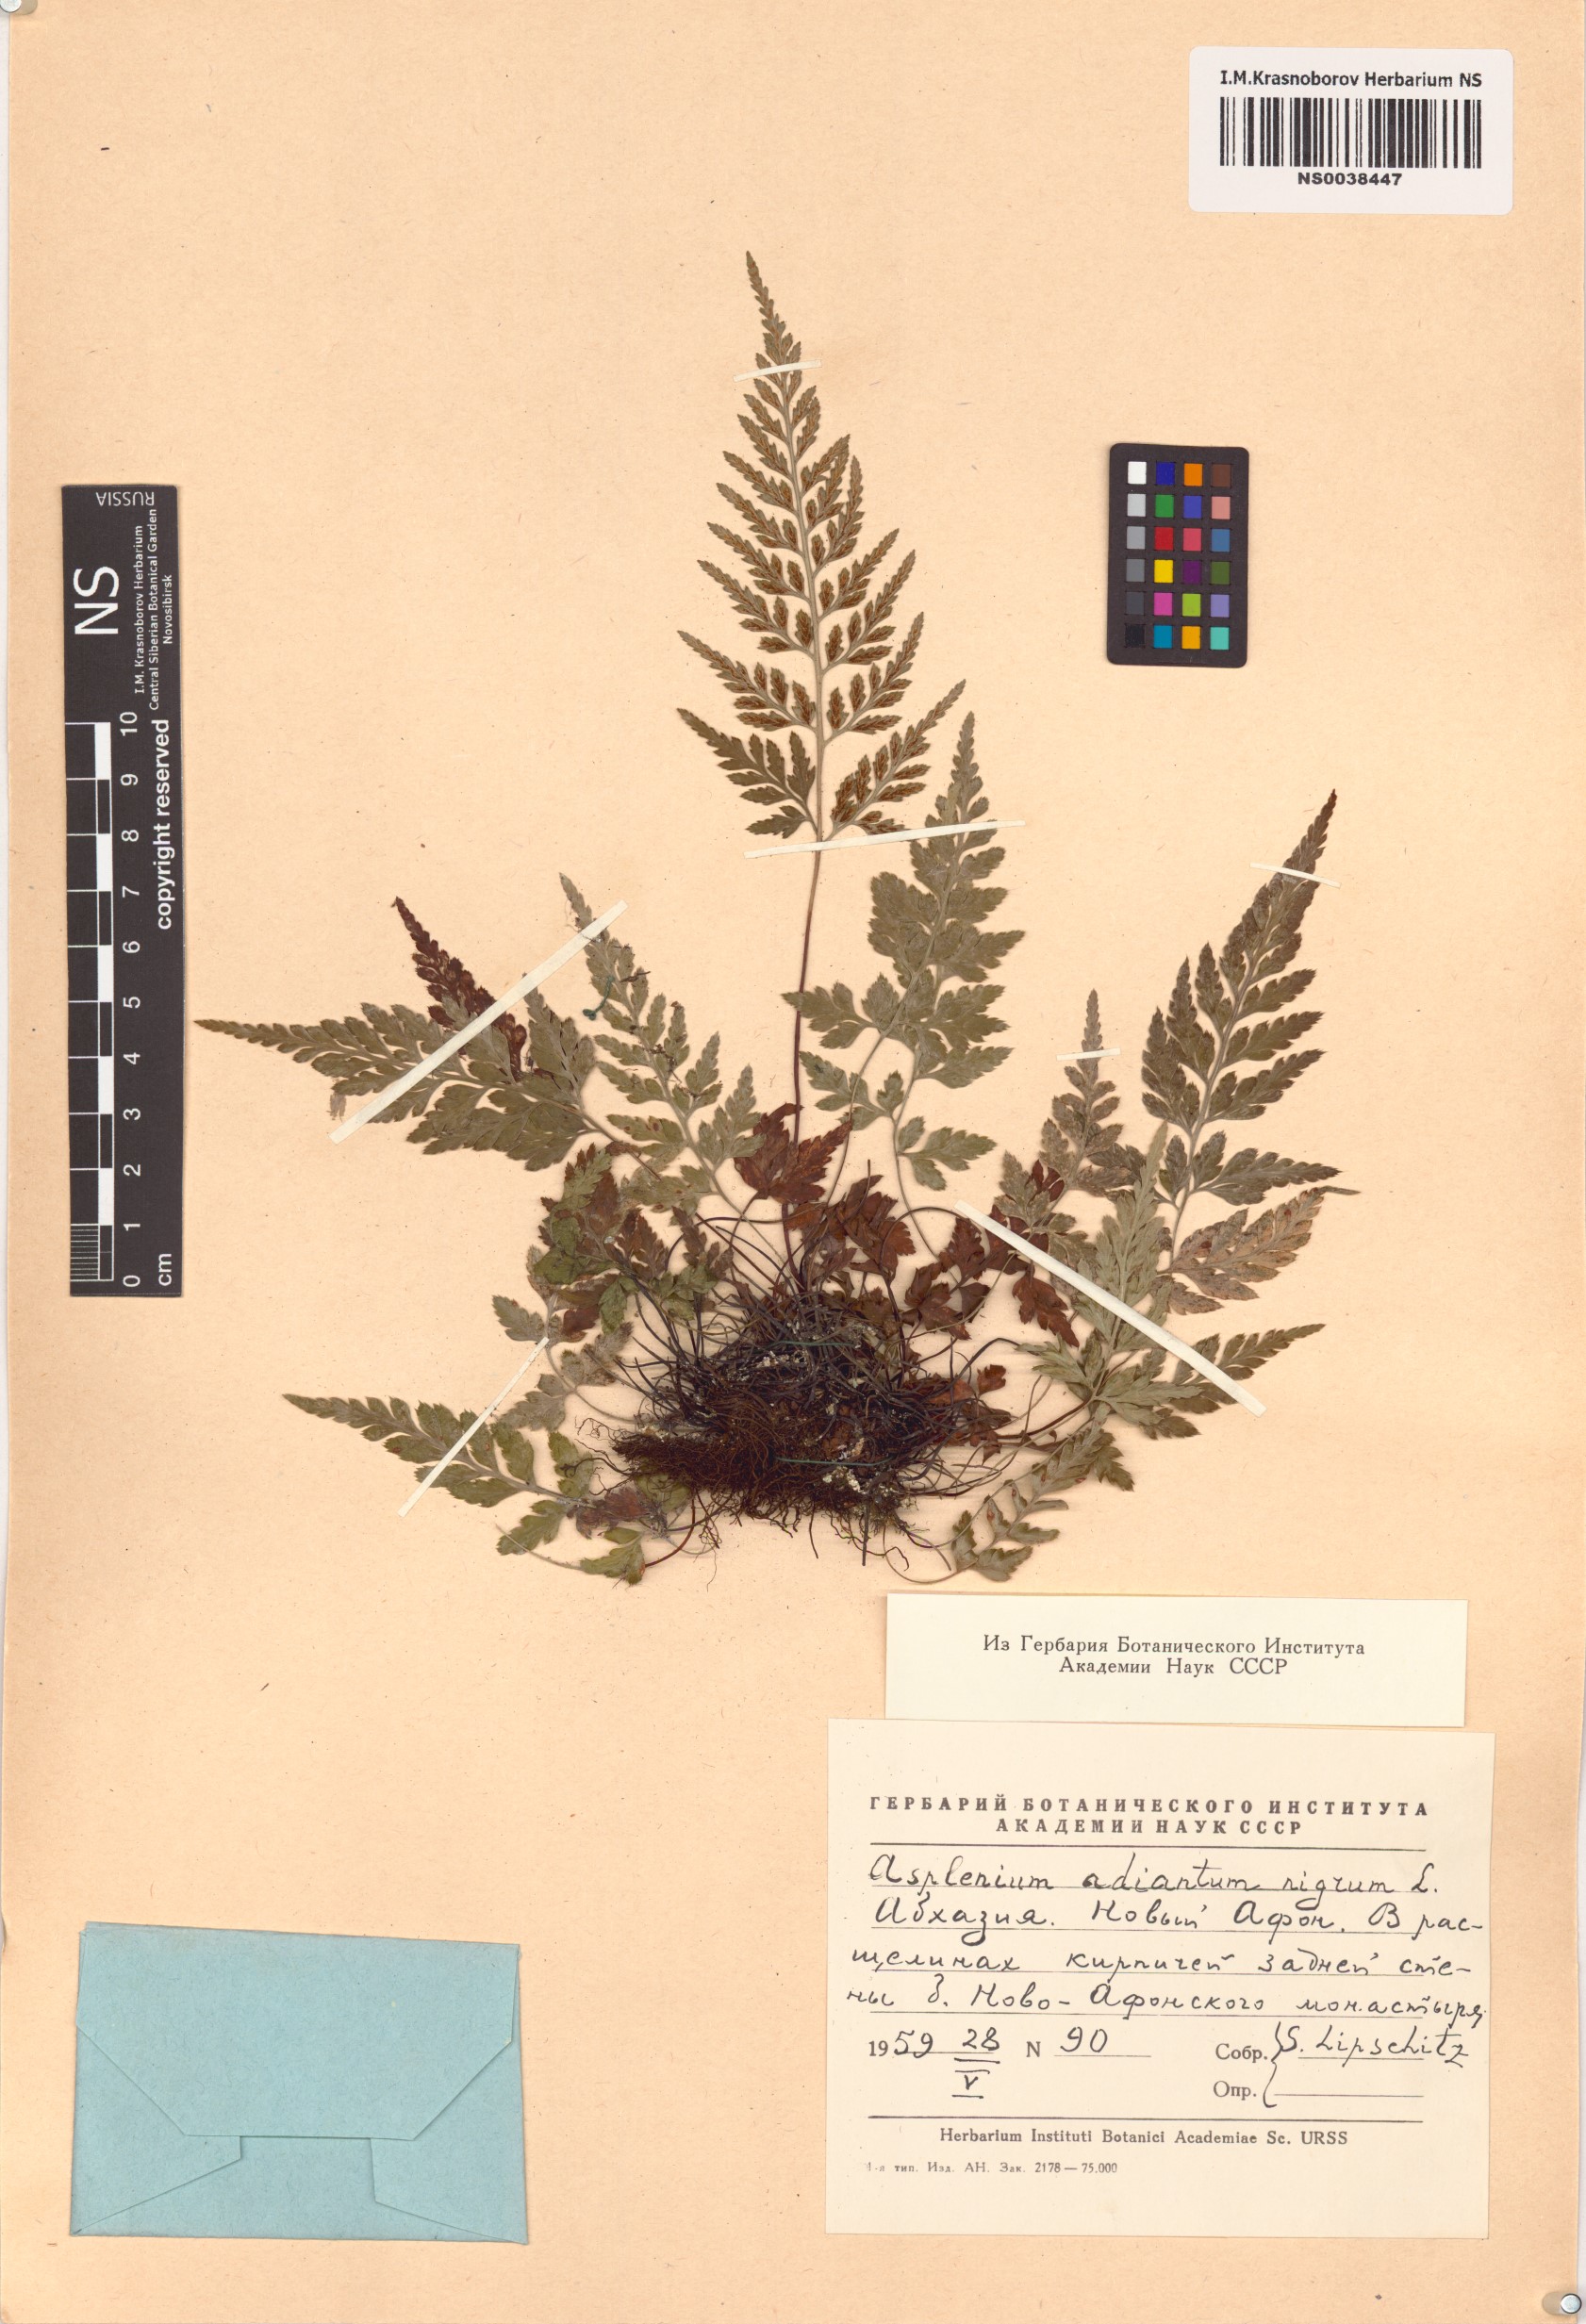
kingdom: Plantae
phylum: Tracheophyta
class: Polypodiopsida
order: Polypodiales
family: Aspleniaceae
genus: Asplenium
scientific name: Asplenium adiantum-nigrum
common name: Black spleenwort
